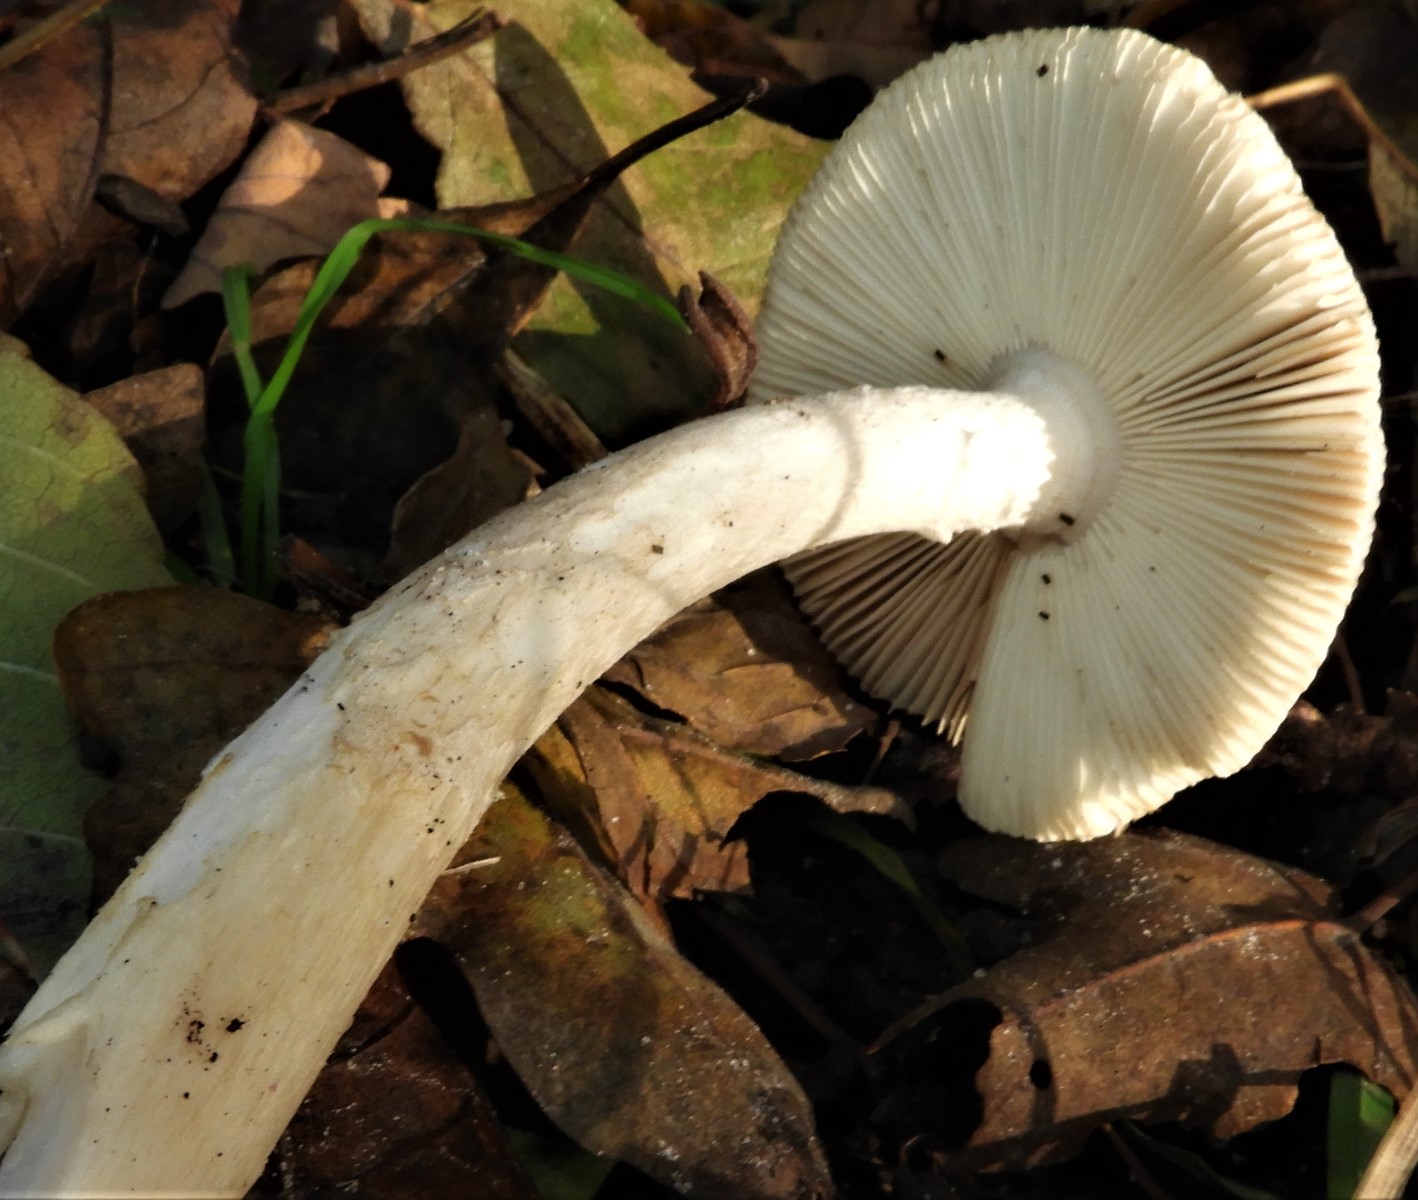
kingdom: Fungi
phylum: Basidiomycota
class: Agaricomycetes
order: Agaricales
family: Amanitaceae
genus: Amanita
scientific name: Amanita
